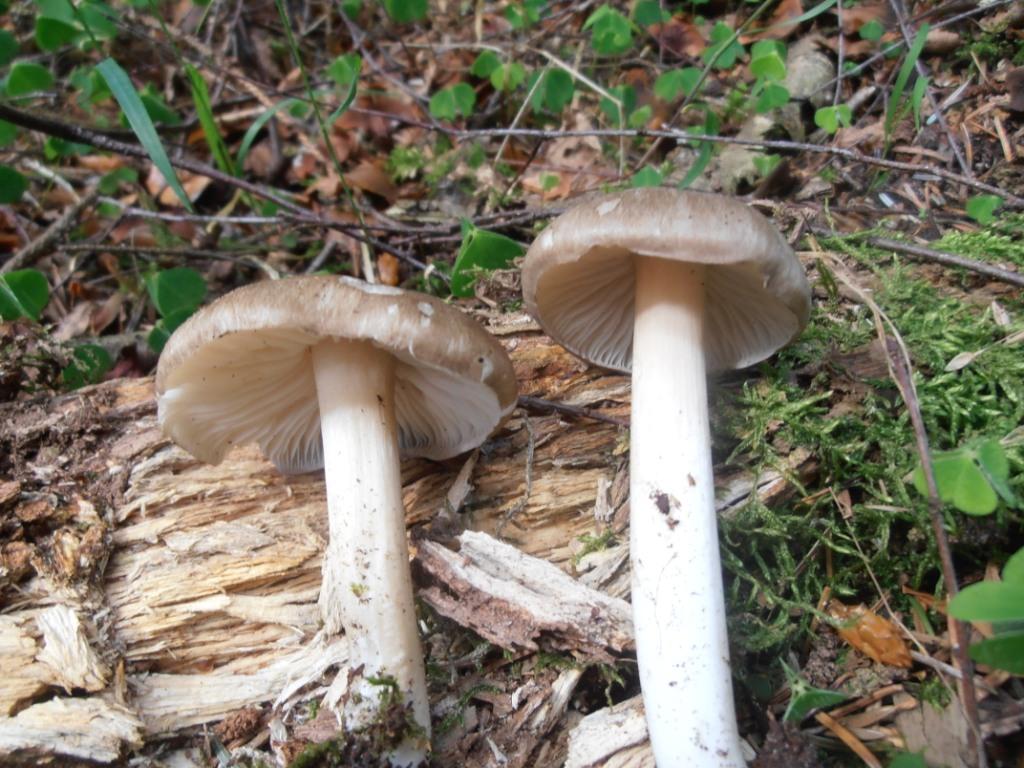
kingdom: Fungi
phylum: Basidiomycota
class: Agaricomycetes
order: Agaricales
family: Tricholomataceae
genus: Megacollybia
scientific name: Megacollybia platyphylla
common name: bredbladet væbnerhat
